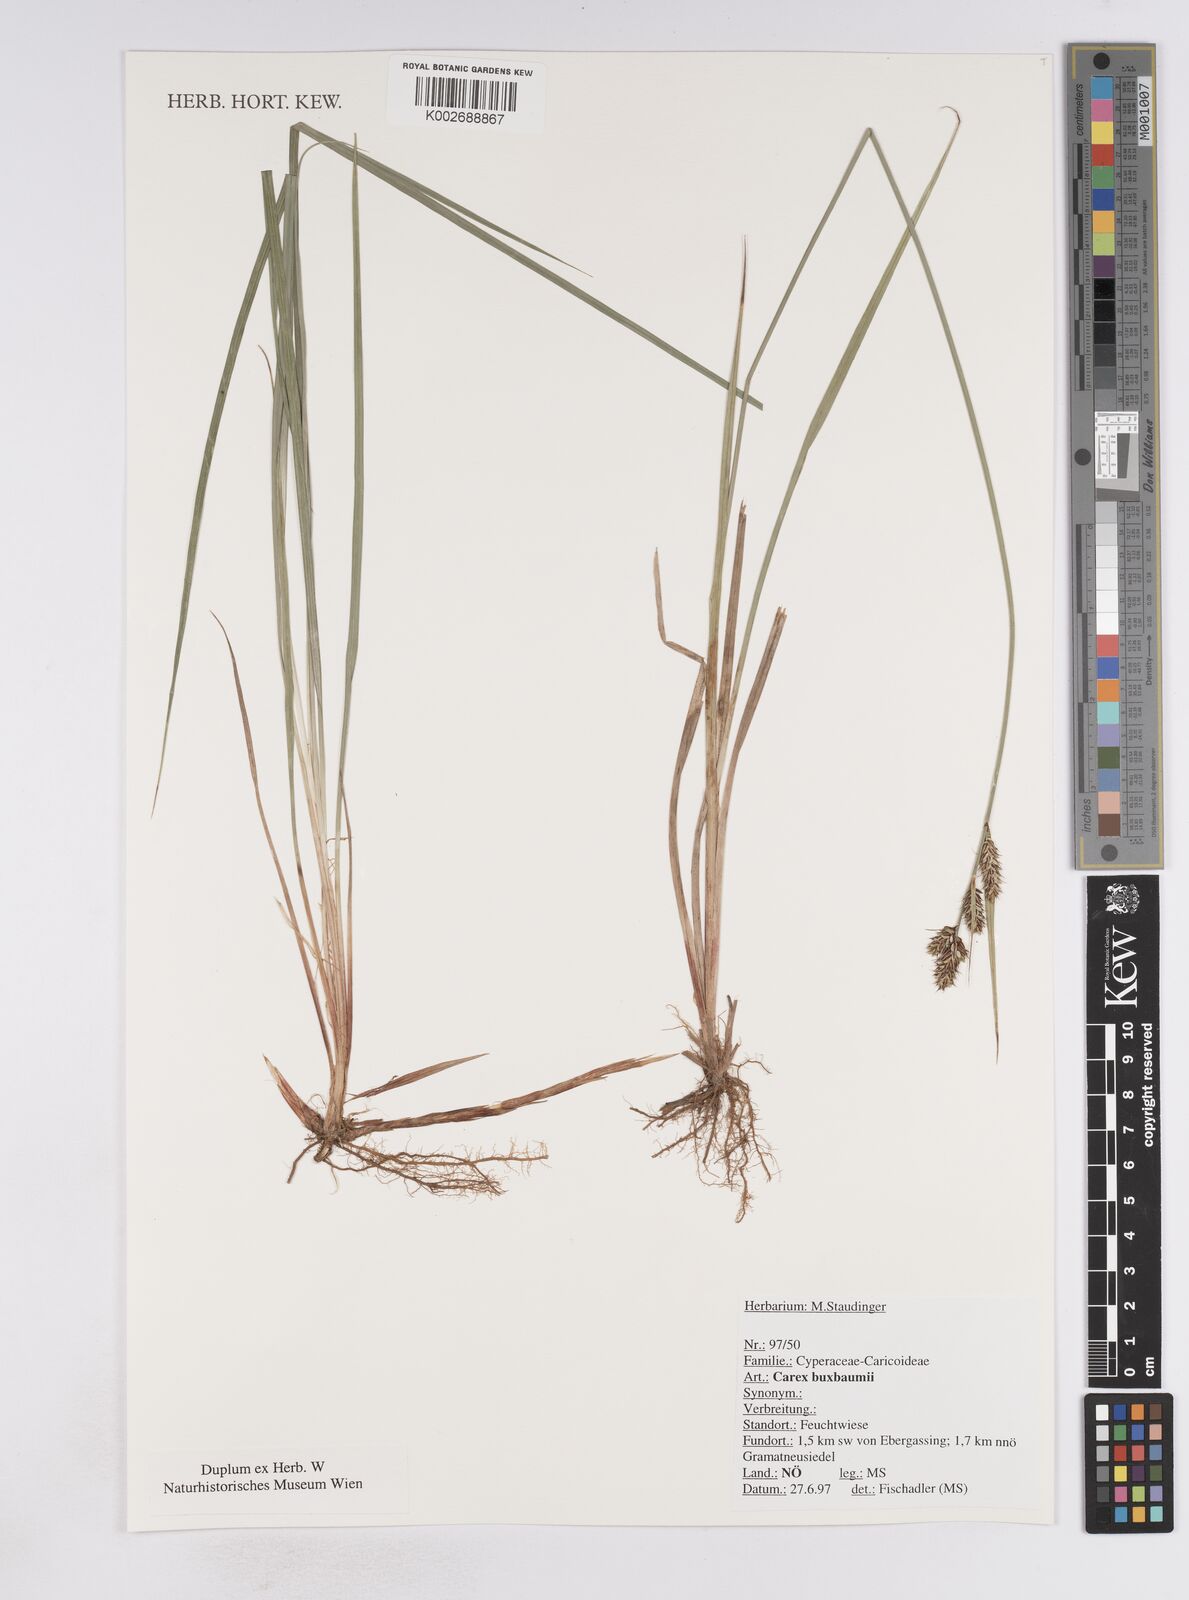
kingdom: Plantae
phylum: Tracheophyta
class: Liliopsida
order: Poales
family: Cyperaceae
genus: Carex
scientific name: Carex buxbaumii
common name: Club sedge
